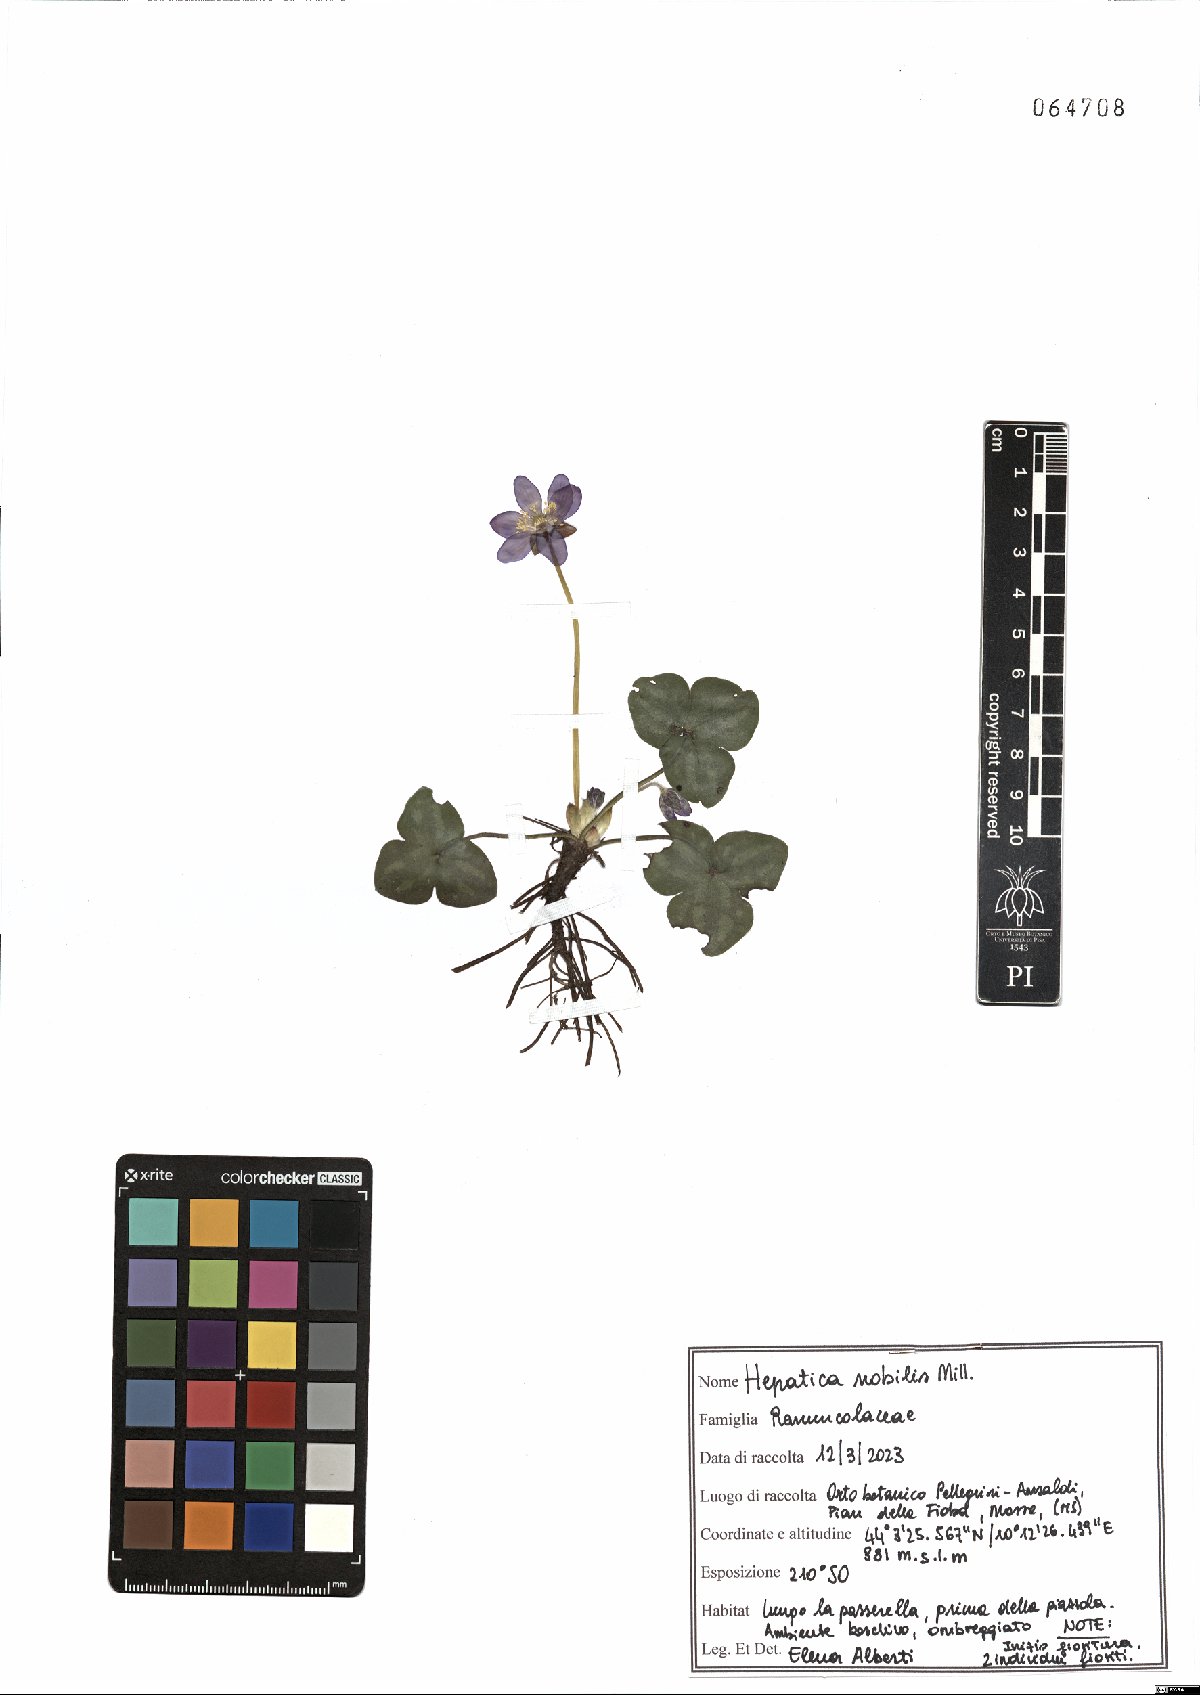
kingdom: Plantae
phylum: Tracheophyta
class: Magnoliopsida
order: Ranunculales
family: Ranunculaceae
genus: Hepatica
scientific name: Hepatica nobilis
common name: Liverleaf
